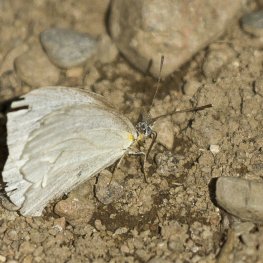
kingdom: Animalia
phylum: Arthropoda
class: Insecta
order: Lepidoptera
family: Pieridae
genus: Pieris
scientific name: Pieris oleracea
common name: Mustard White
